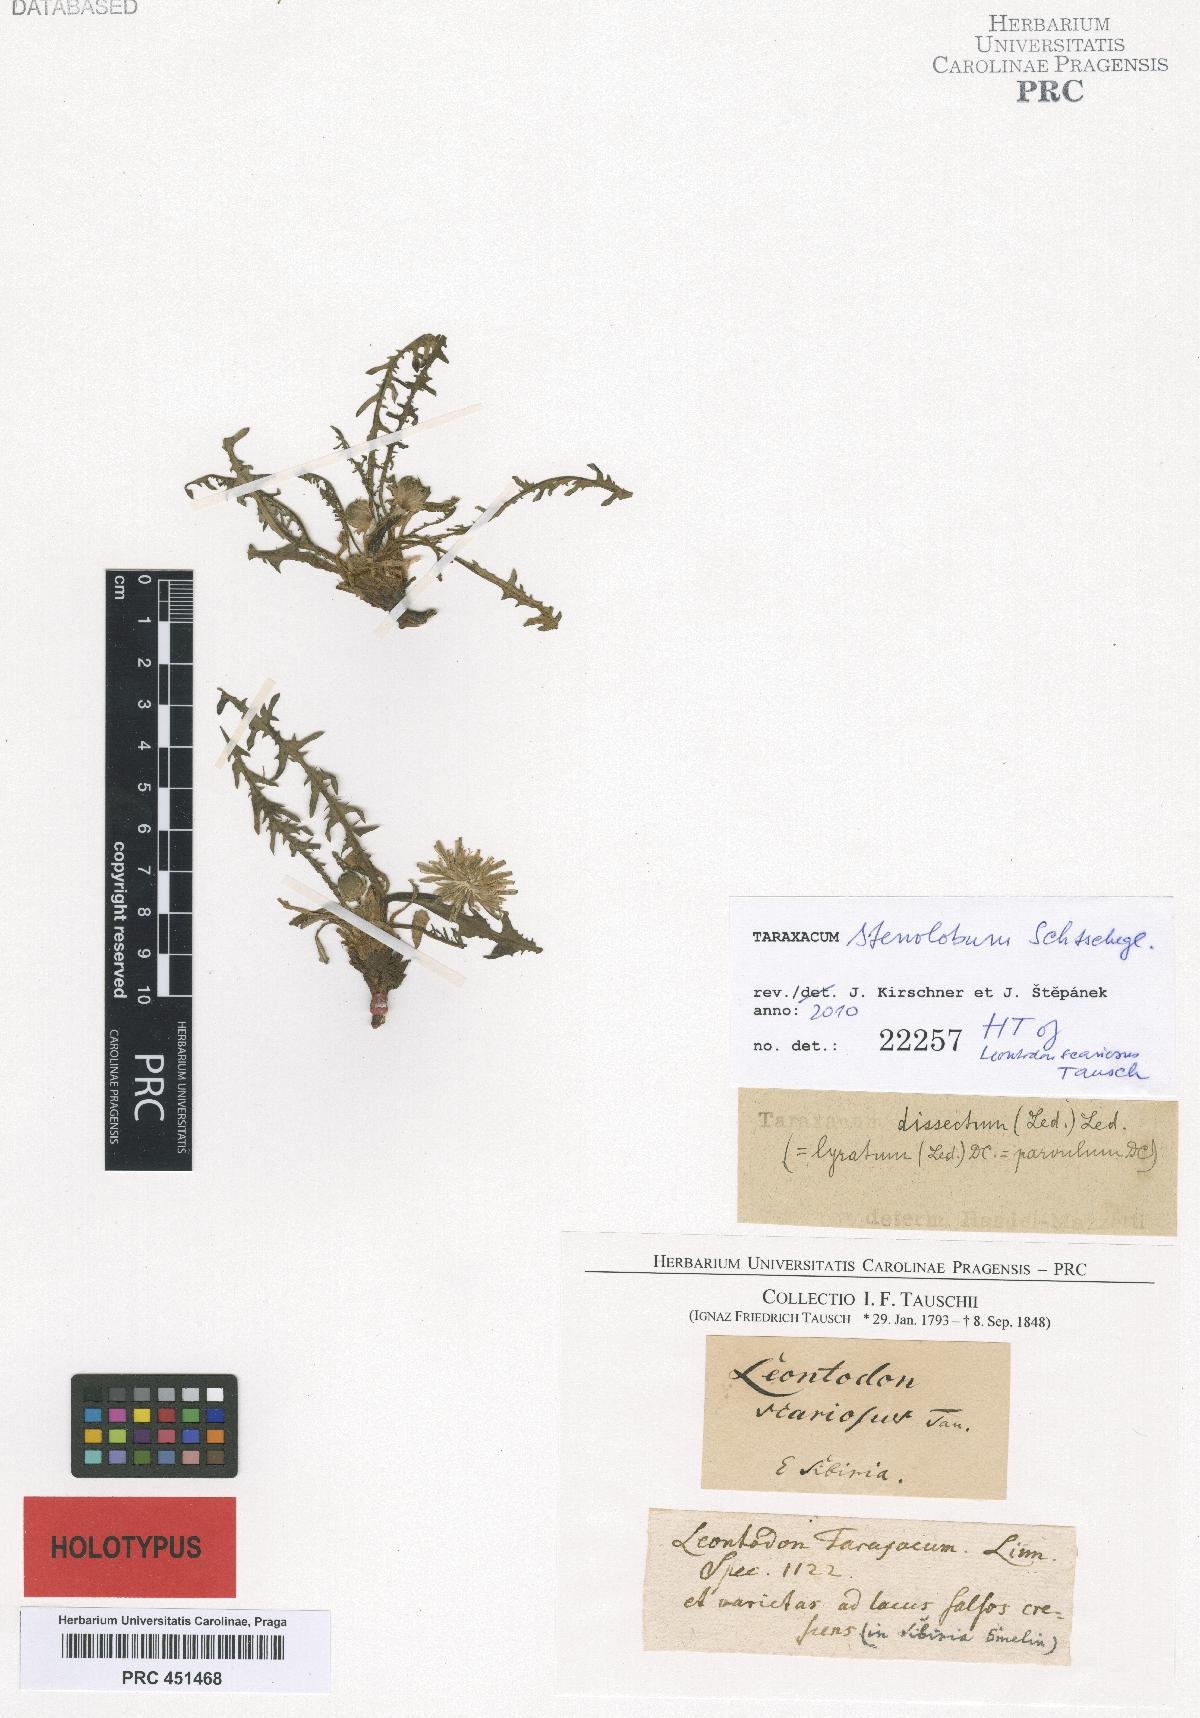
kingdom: Plantae
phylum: Tracheophyta
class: Magnoliopsida
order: Asterales
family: Asteraceae
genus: Taraxacum
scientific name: Taraxacum scariosum
